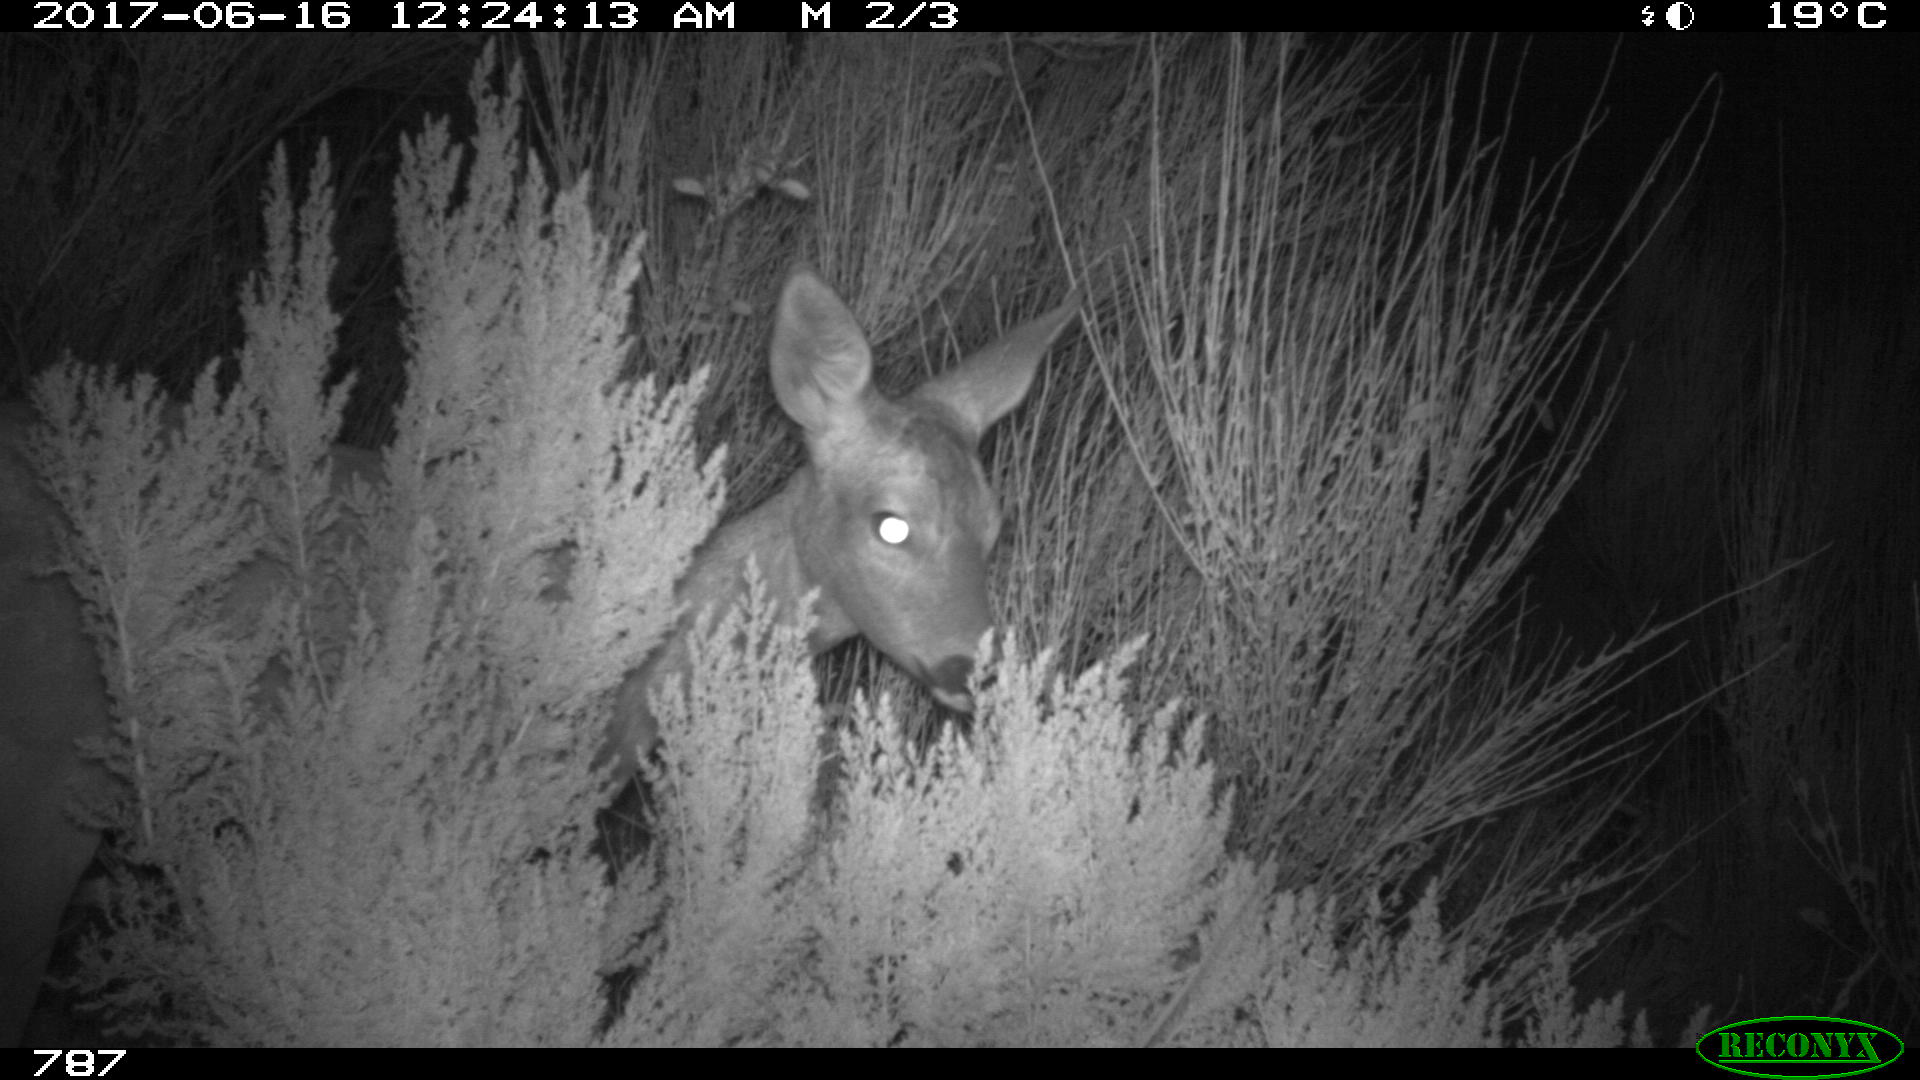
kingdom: Animalia
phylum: Chordata
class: Mammalia
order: Artiodactyla
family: Cervidae
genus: Capreolus
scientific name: Capreolus capreolus
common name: Western roe deer
